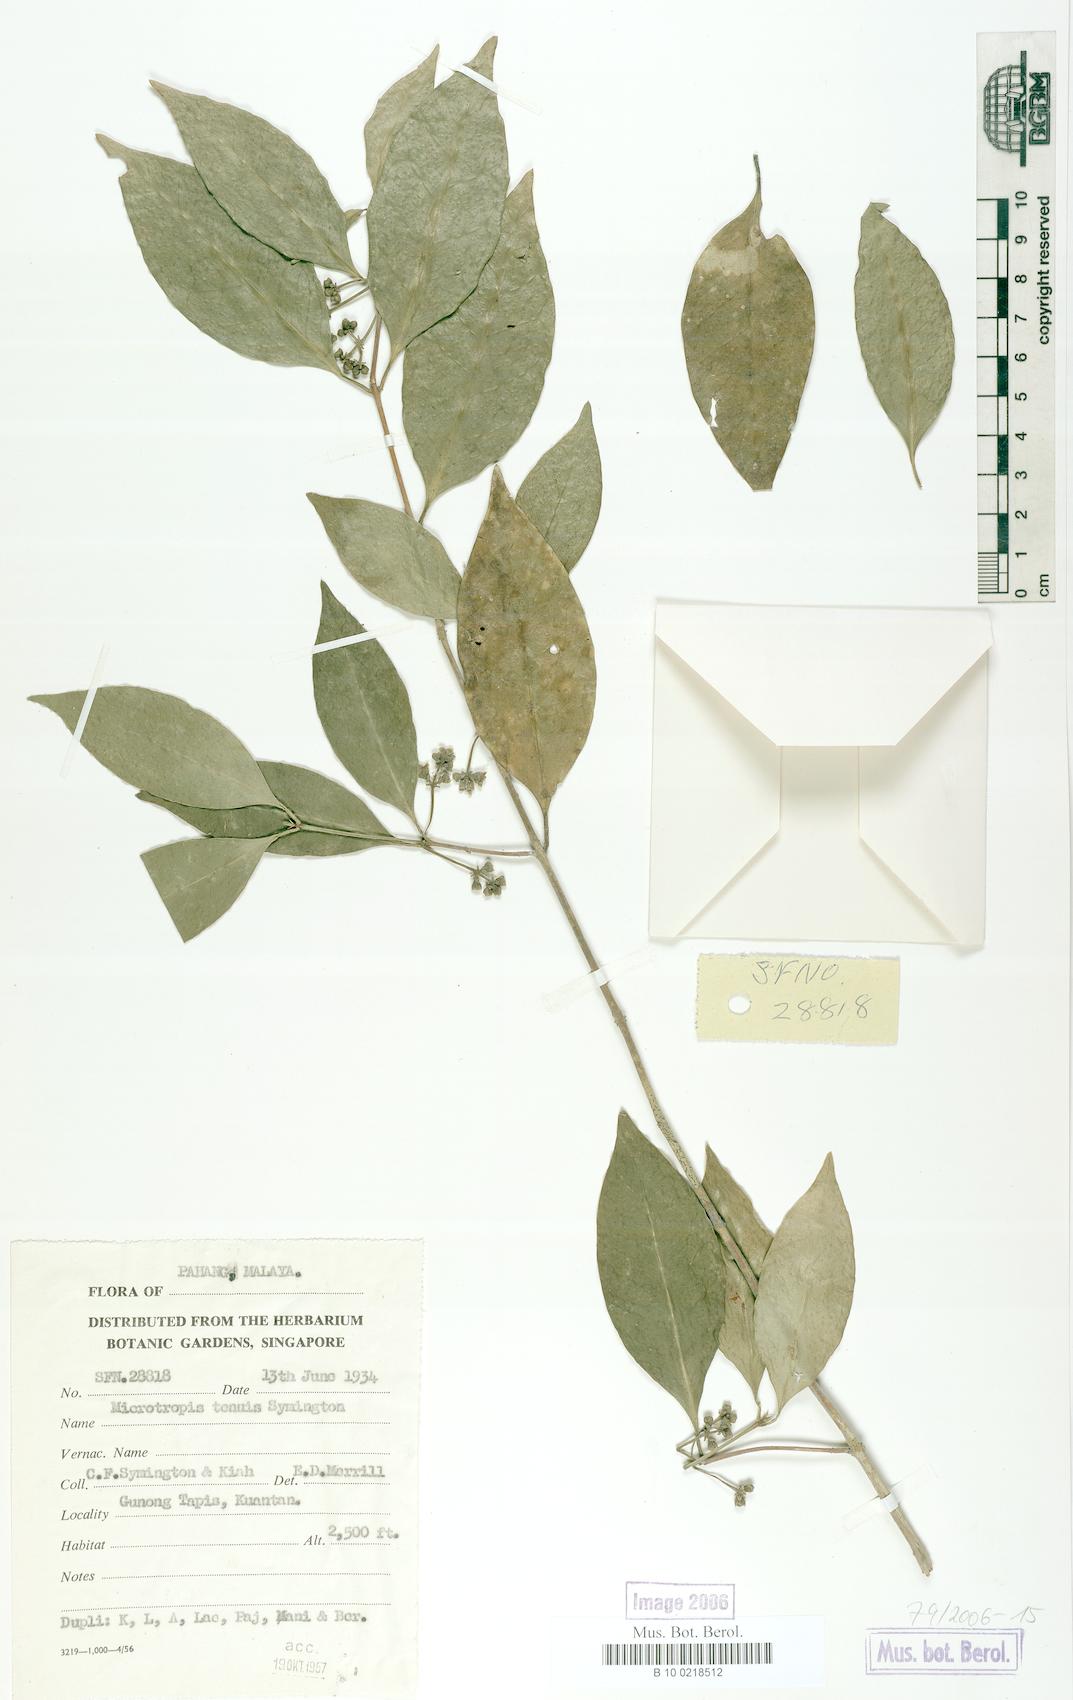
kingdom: Plantae
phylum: Tracheophyta
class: Magnoliopsida
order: Celastrales
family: Celastraceae
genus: Microtropis
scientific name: Microtropis tenuis
